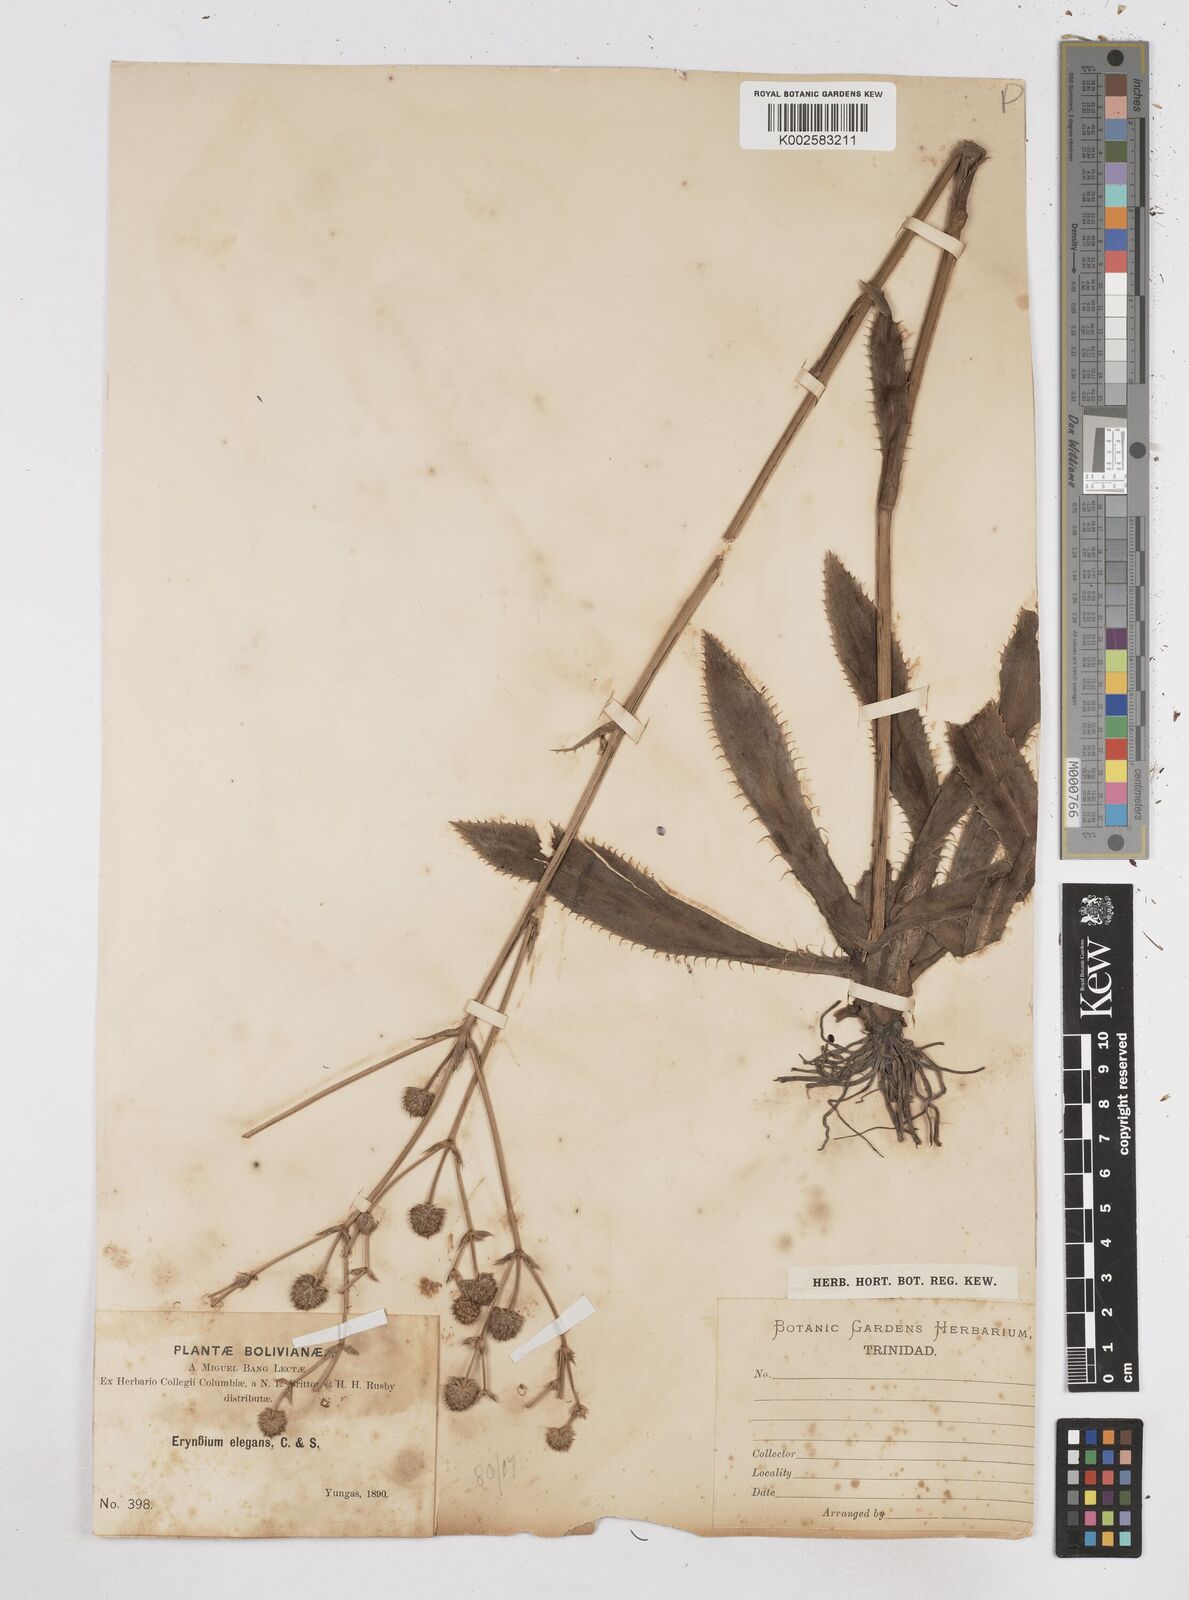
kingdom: Plantae
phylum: Tracheophyta
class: Magnoliopsida
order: Apiales
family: Apiaceae
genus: Eryngium
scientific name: Eryngium elegans
